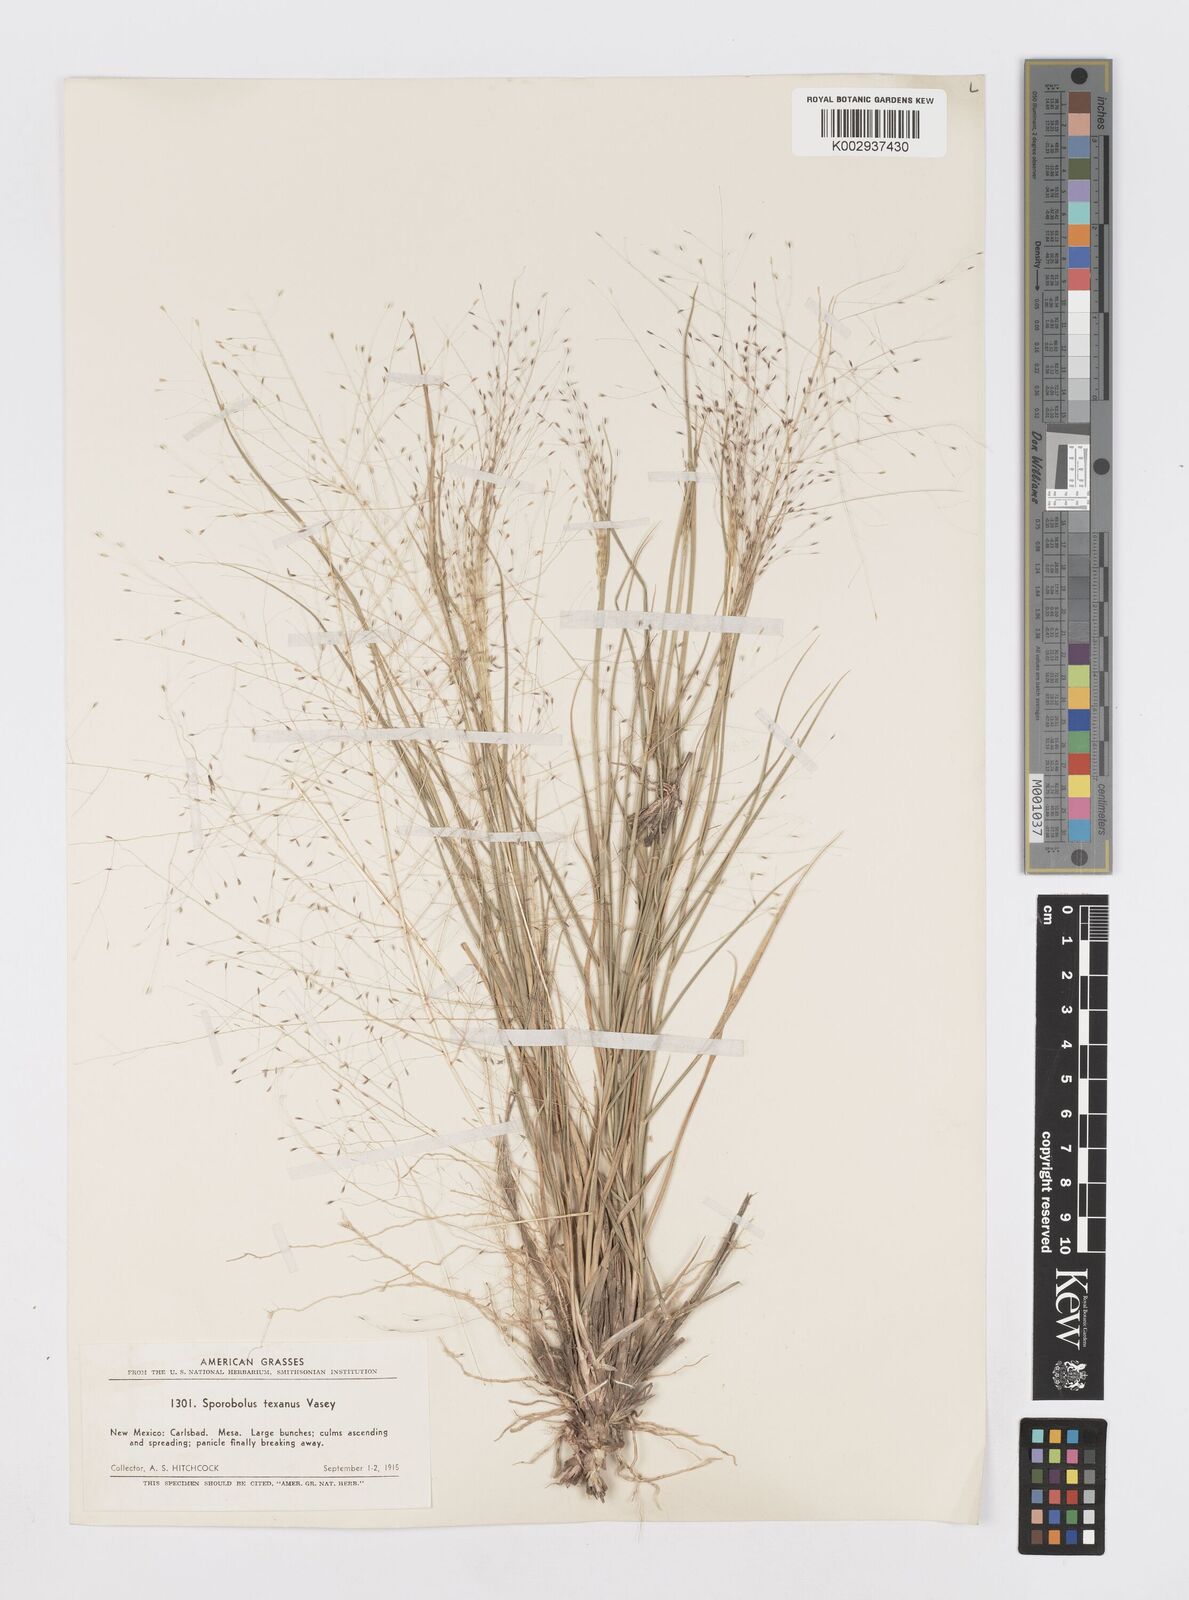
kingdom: Plantae
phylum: Tracheophyta
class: Liliopsida
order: Poales
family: Poaceae
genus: Sporobolus
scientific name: Sporobolus texanus
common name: Texas dropseed
